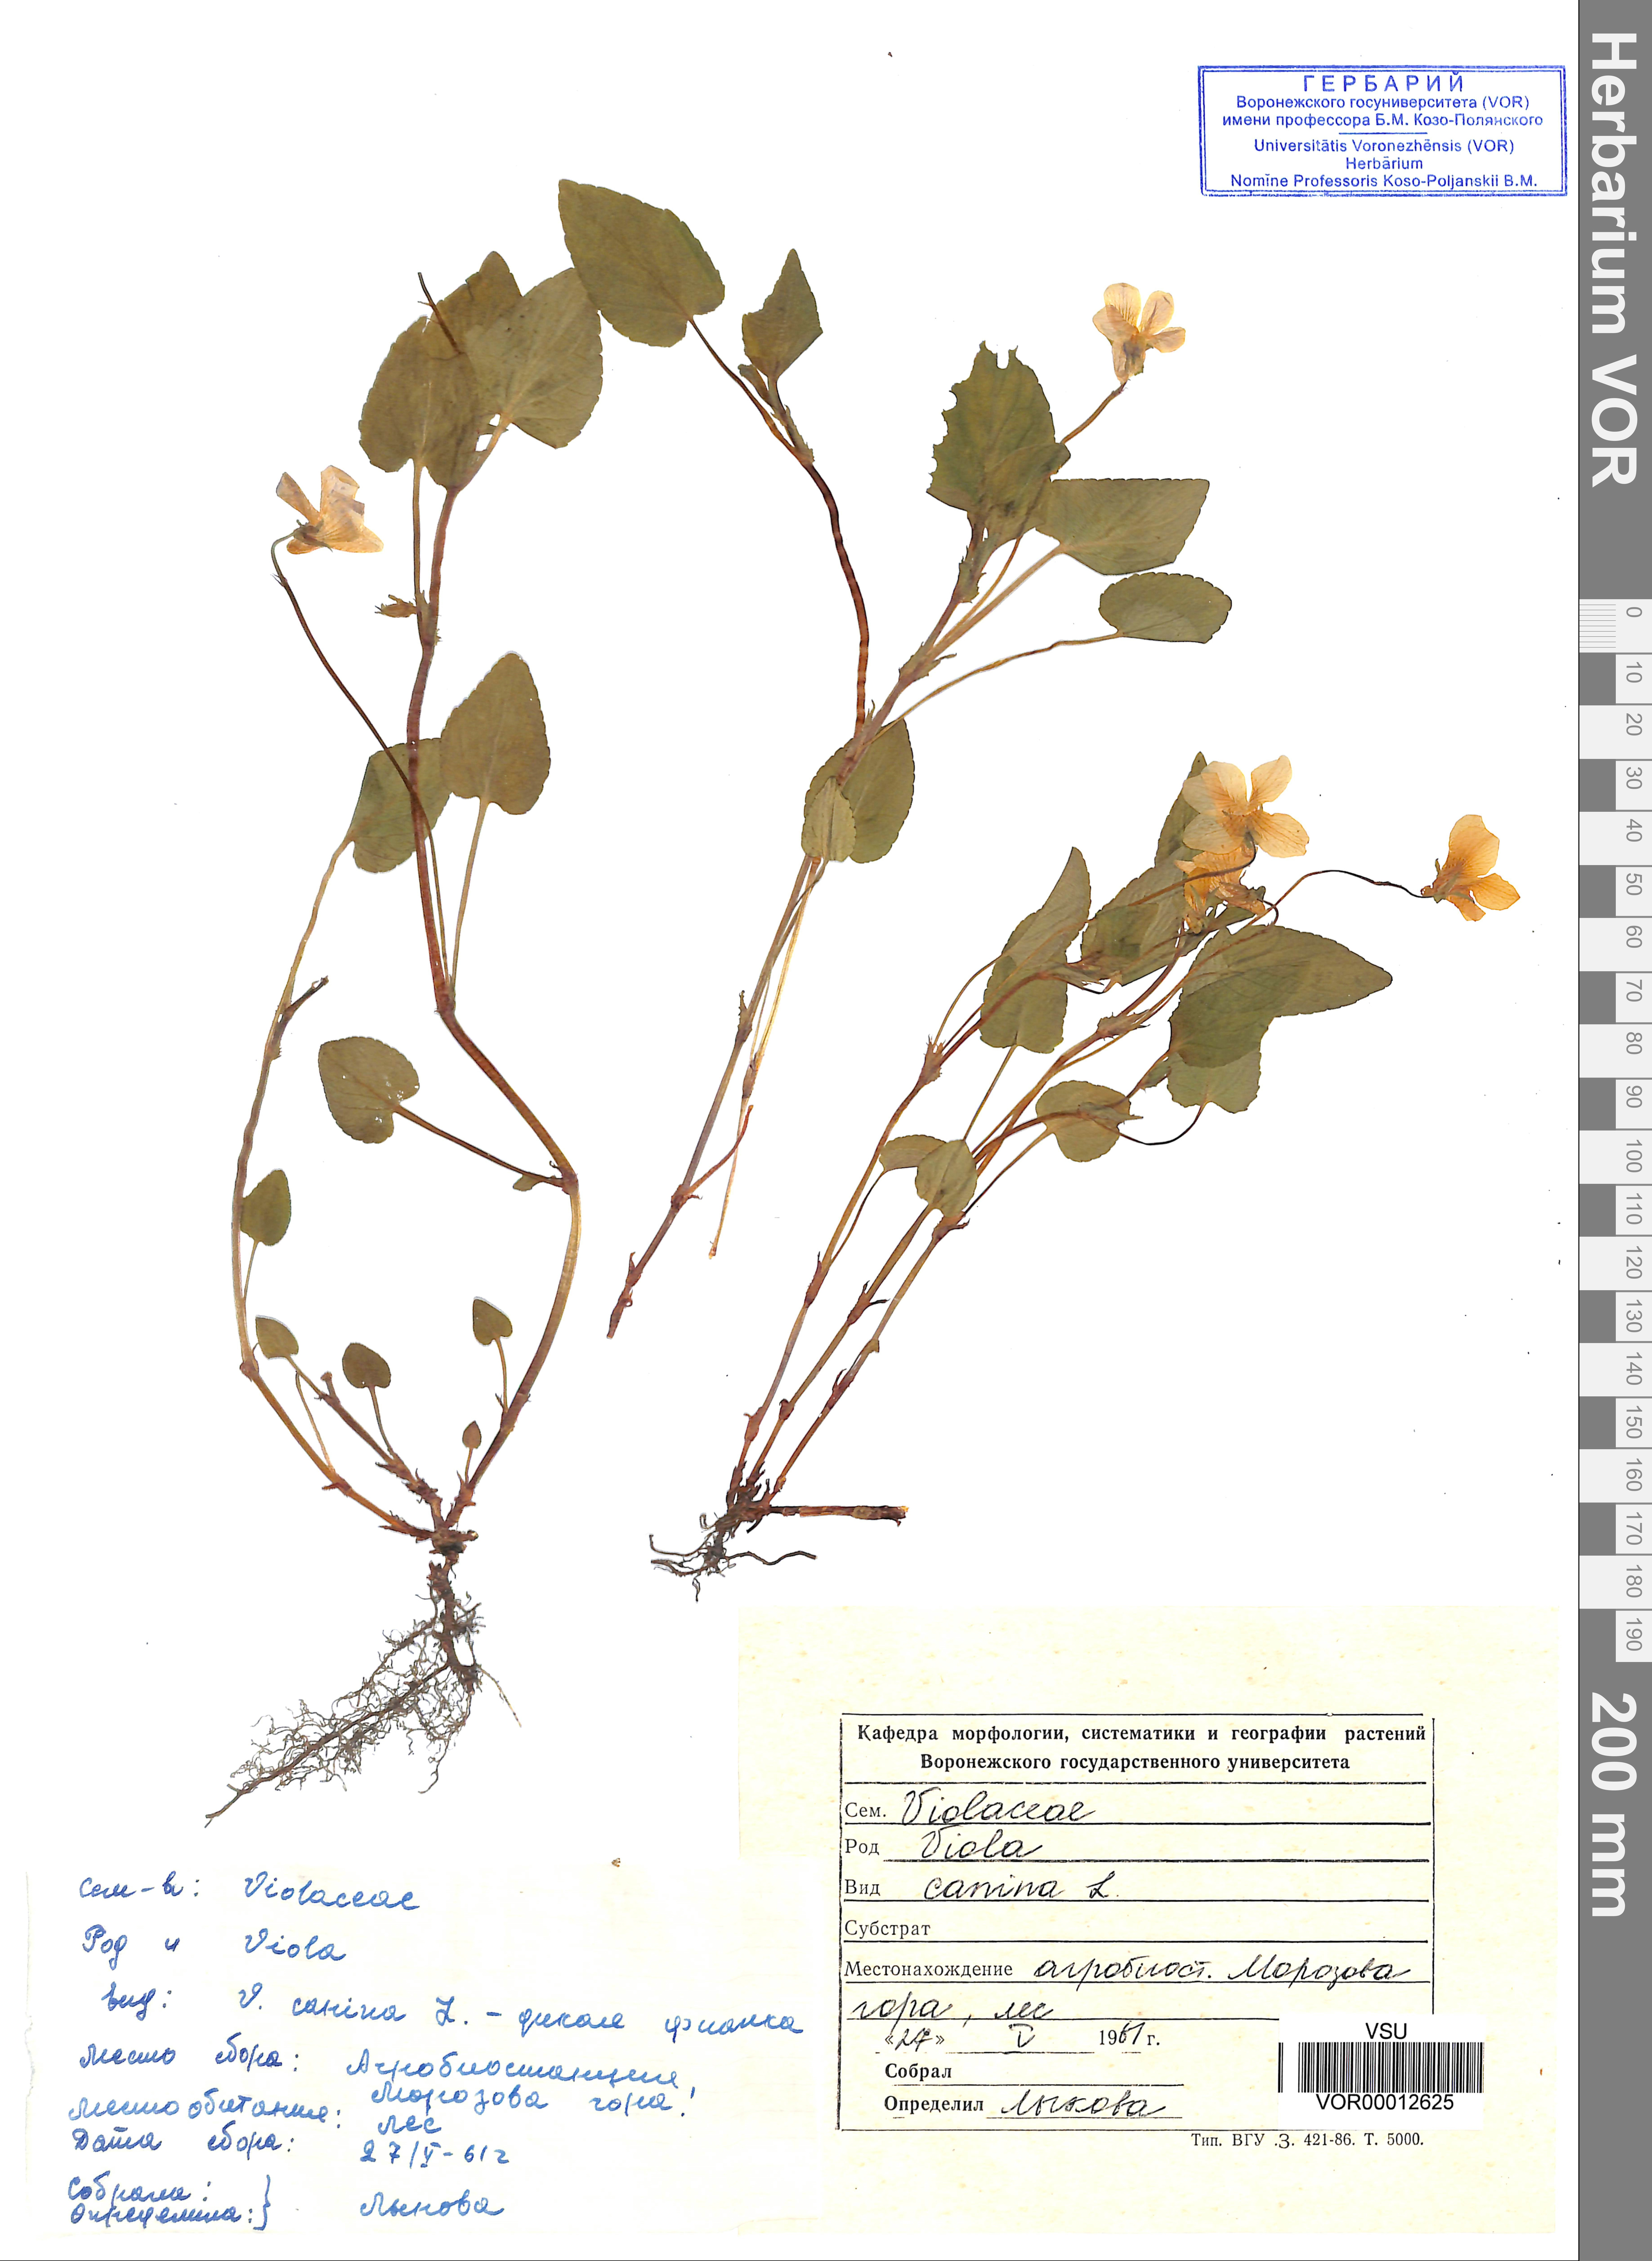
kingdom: Plantae
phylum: Tracheophyta
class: Magnoliopsida
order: Malpighiales
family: Violaceae
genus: Viola
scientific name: Viola canina
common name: Heath dog-violet
